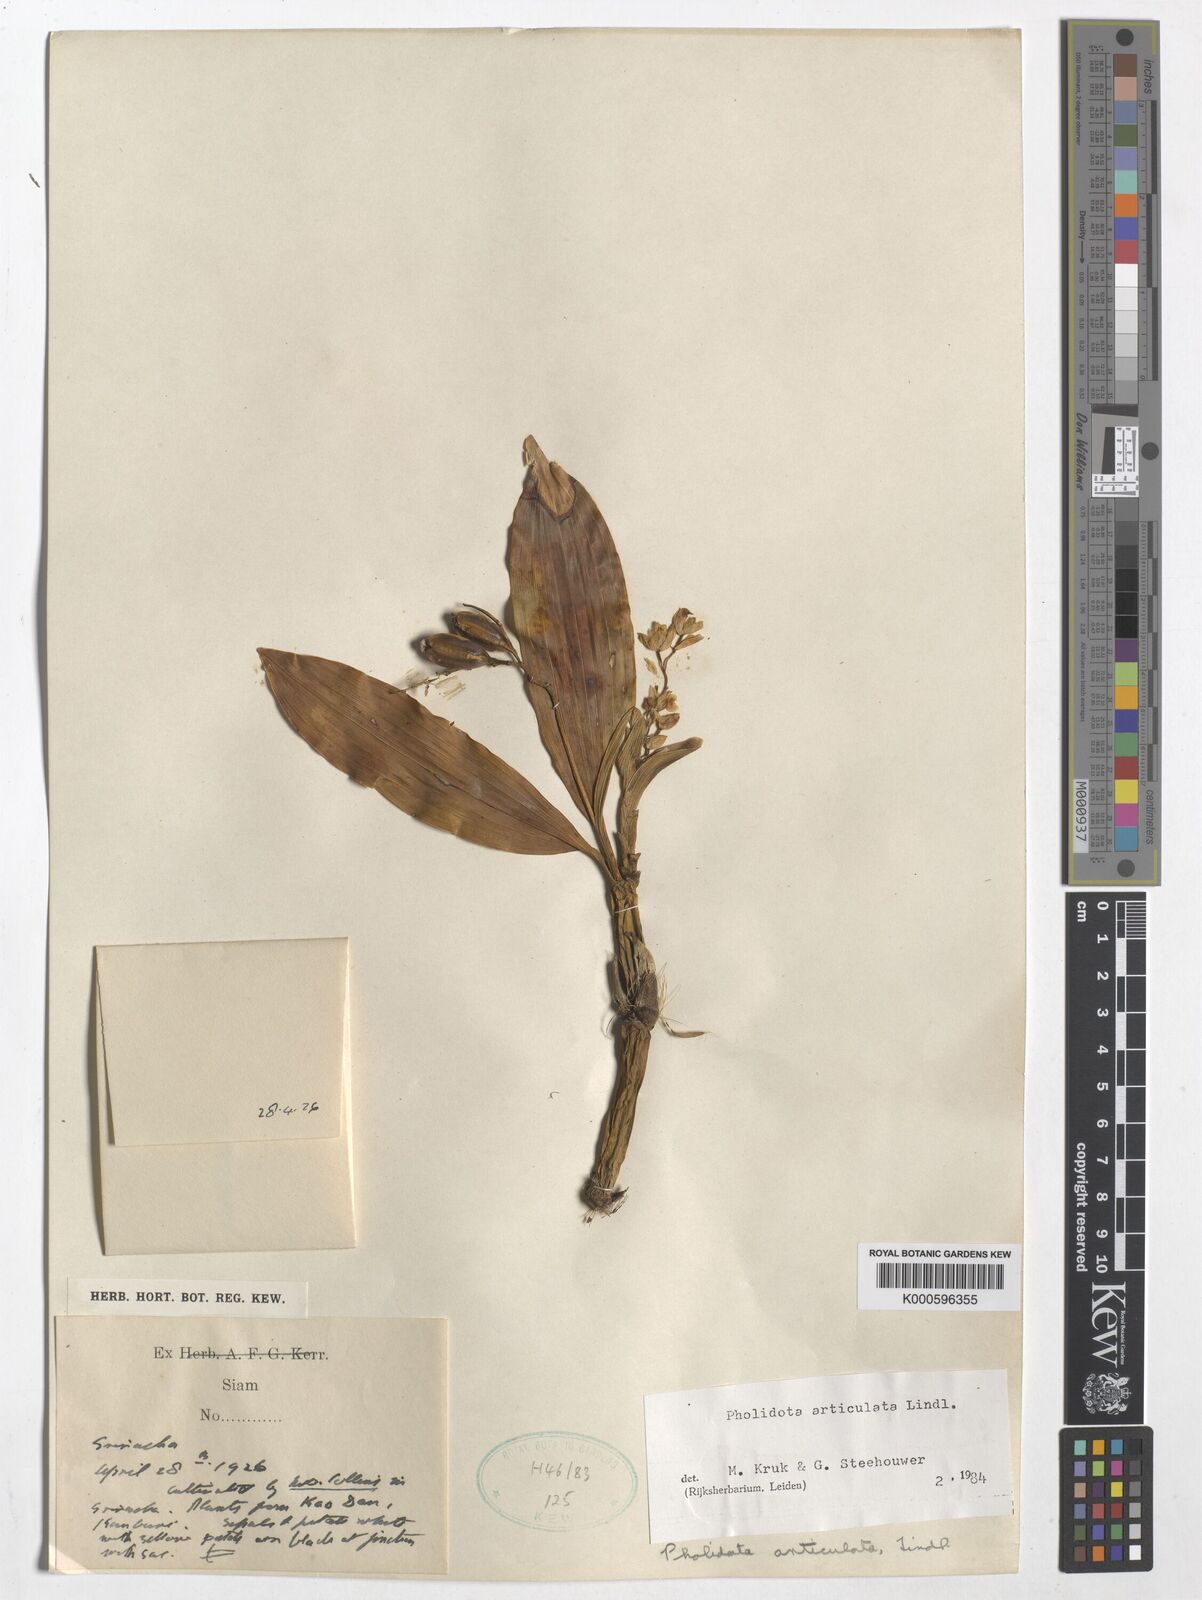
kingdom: Plantae
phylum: Tracheophyta
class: Liliopsida
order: Asparagales
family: Orchidaceae
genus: Coelogyne
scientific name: Coelogyne articulata
